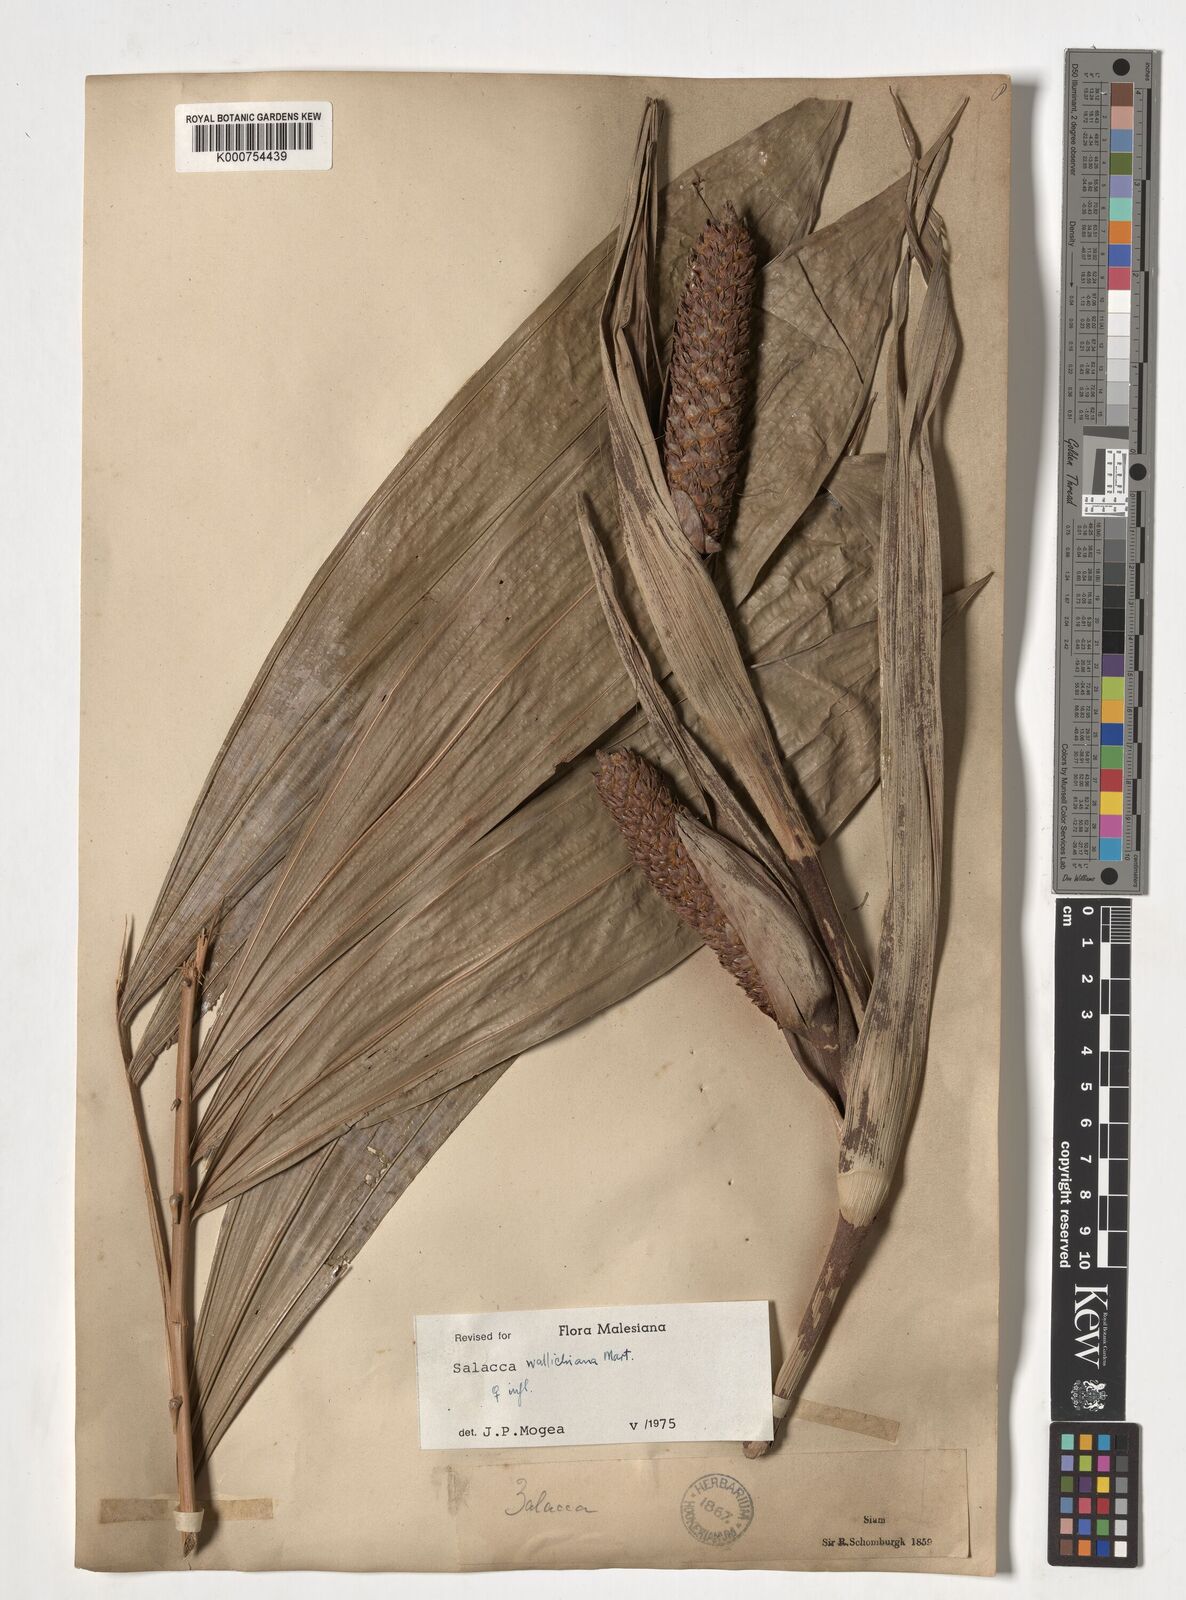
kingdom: Plantae
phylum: Tracheophyta
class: Liliopsida
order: Arecales
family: Arecaceae
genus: Salacca
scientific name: Salacca wallichiana
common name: Rakum palm
